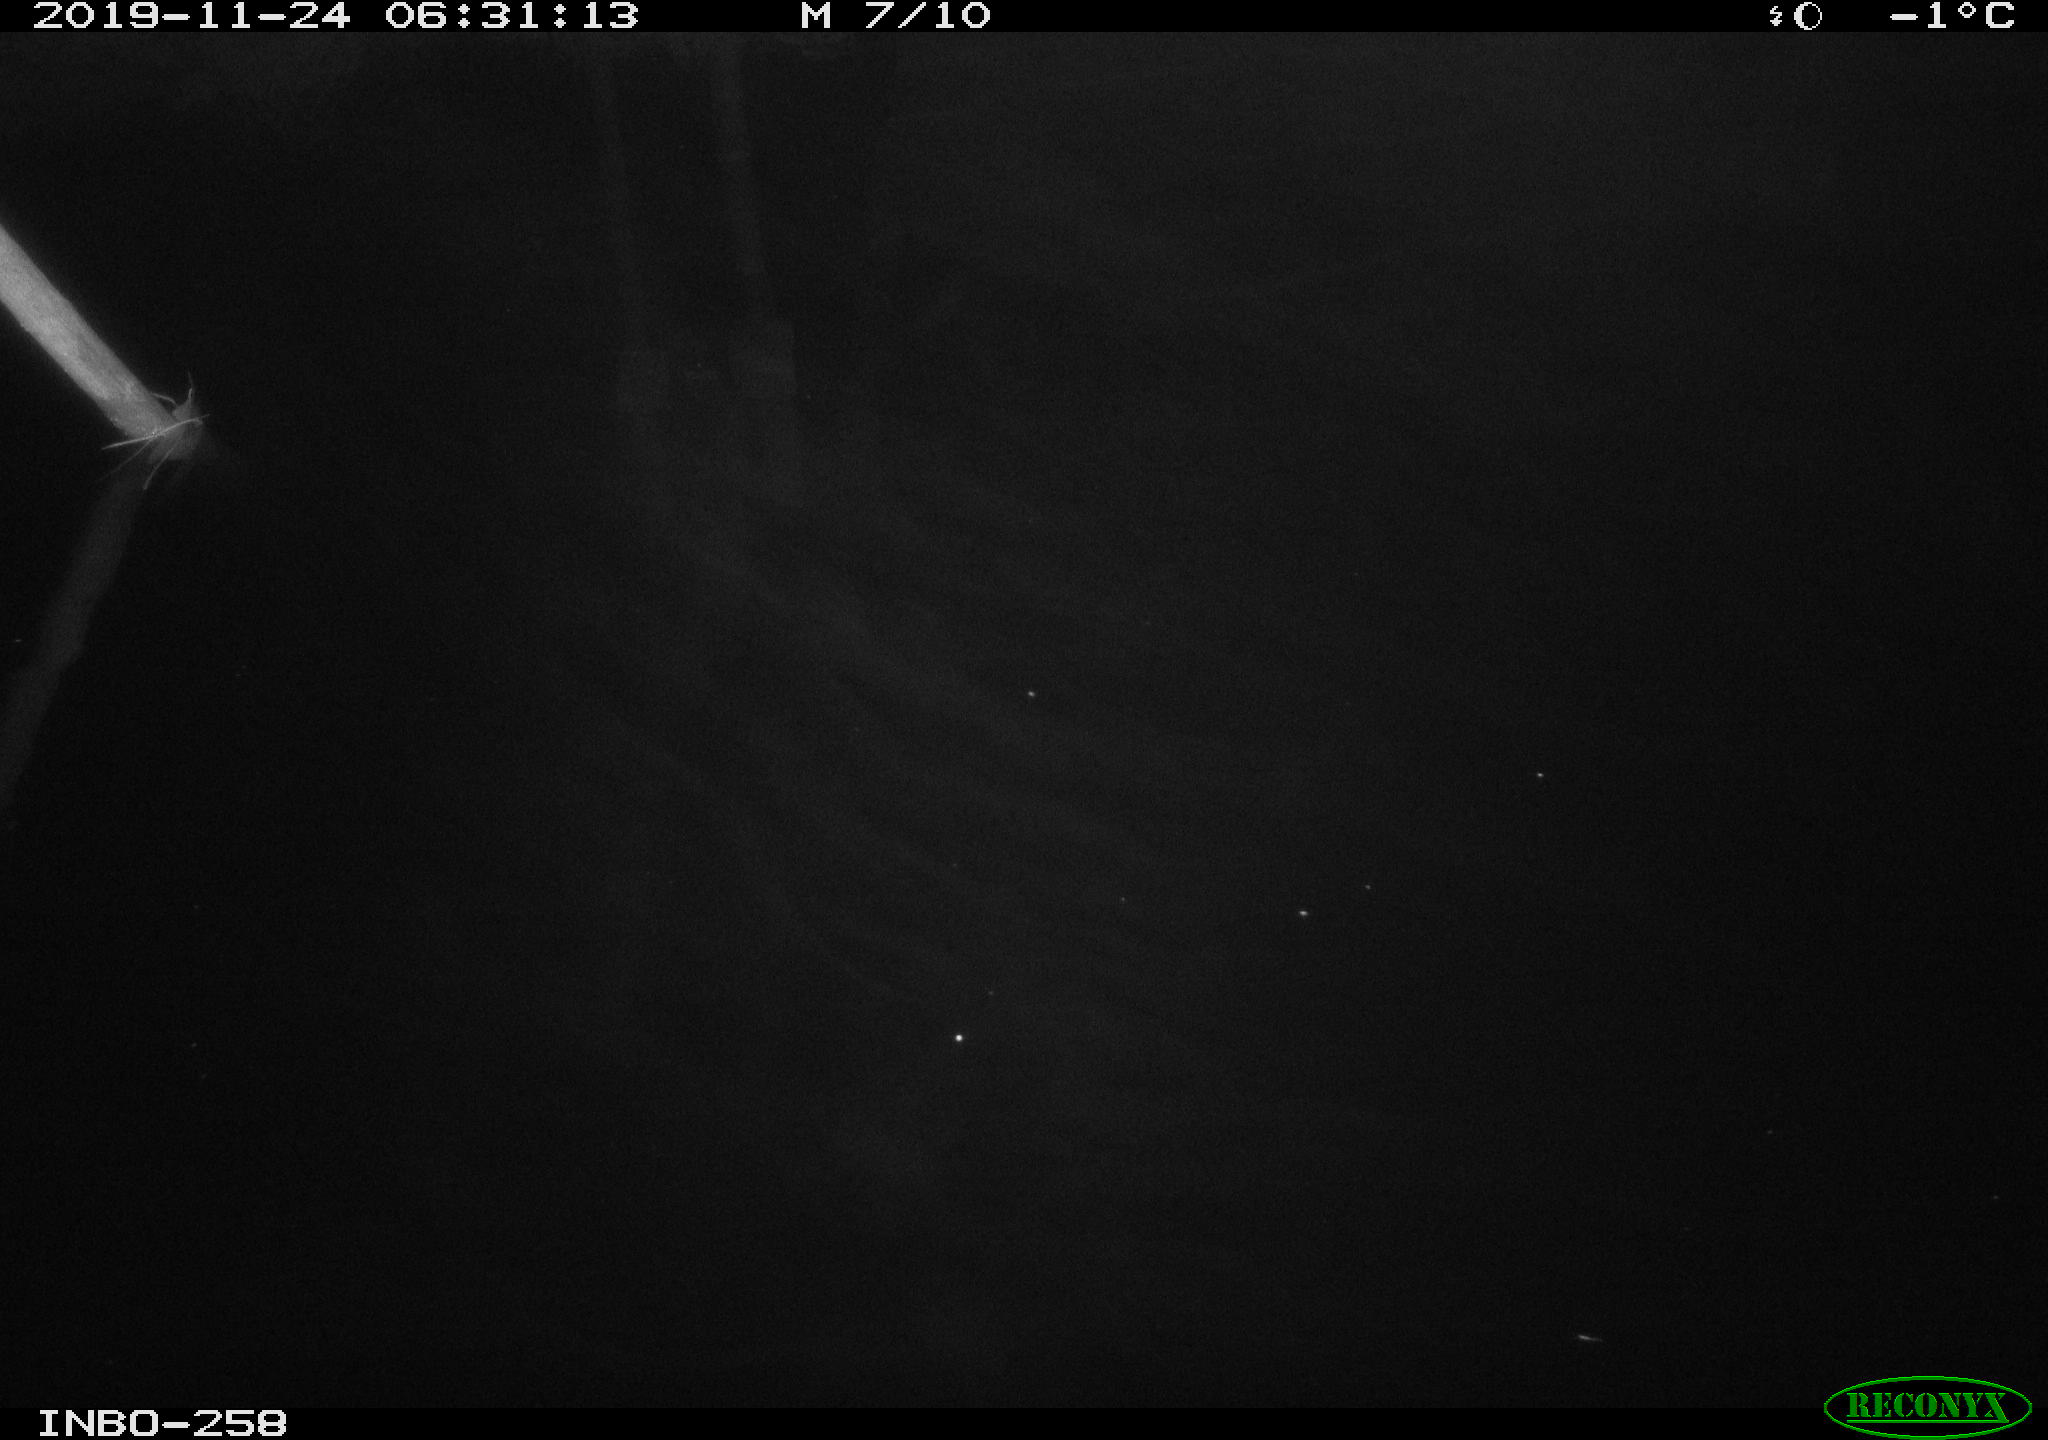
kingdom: Animalia
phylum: Chordata
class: Aves
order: Anseriformes
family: Anatidae
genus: Anas
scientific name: Anas platyrhynchos
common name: Mallard
